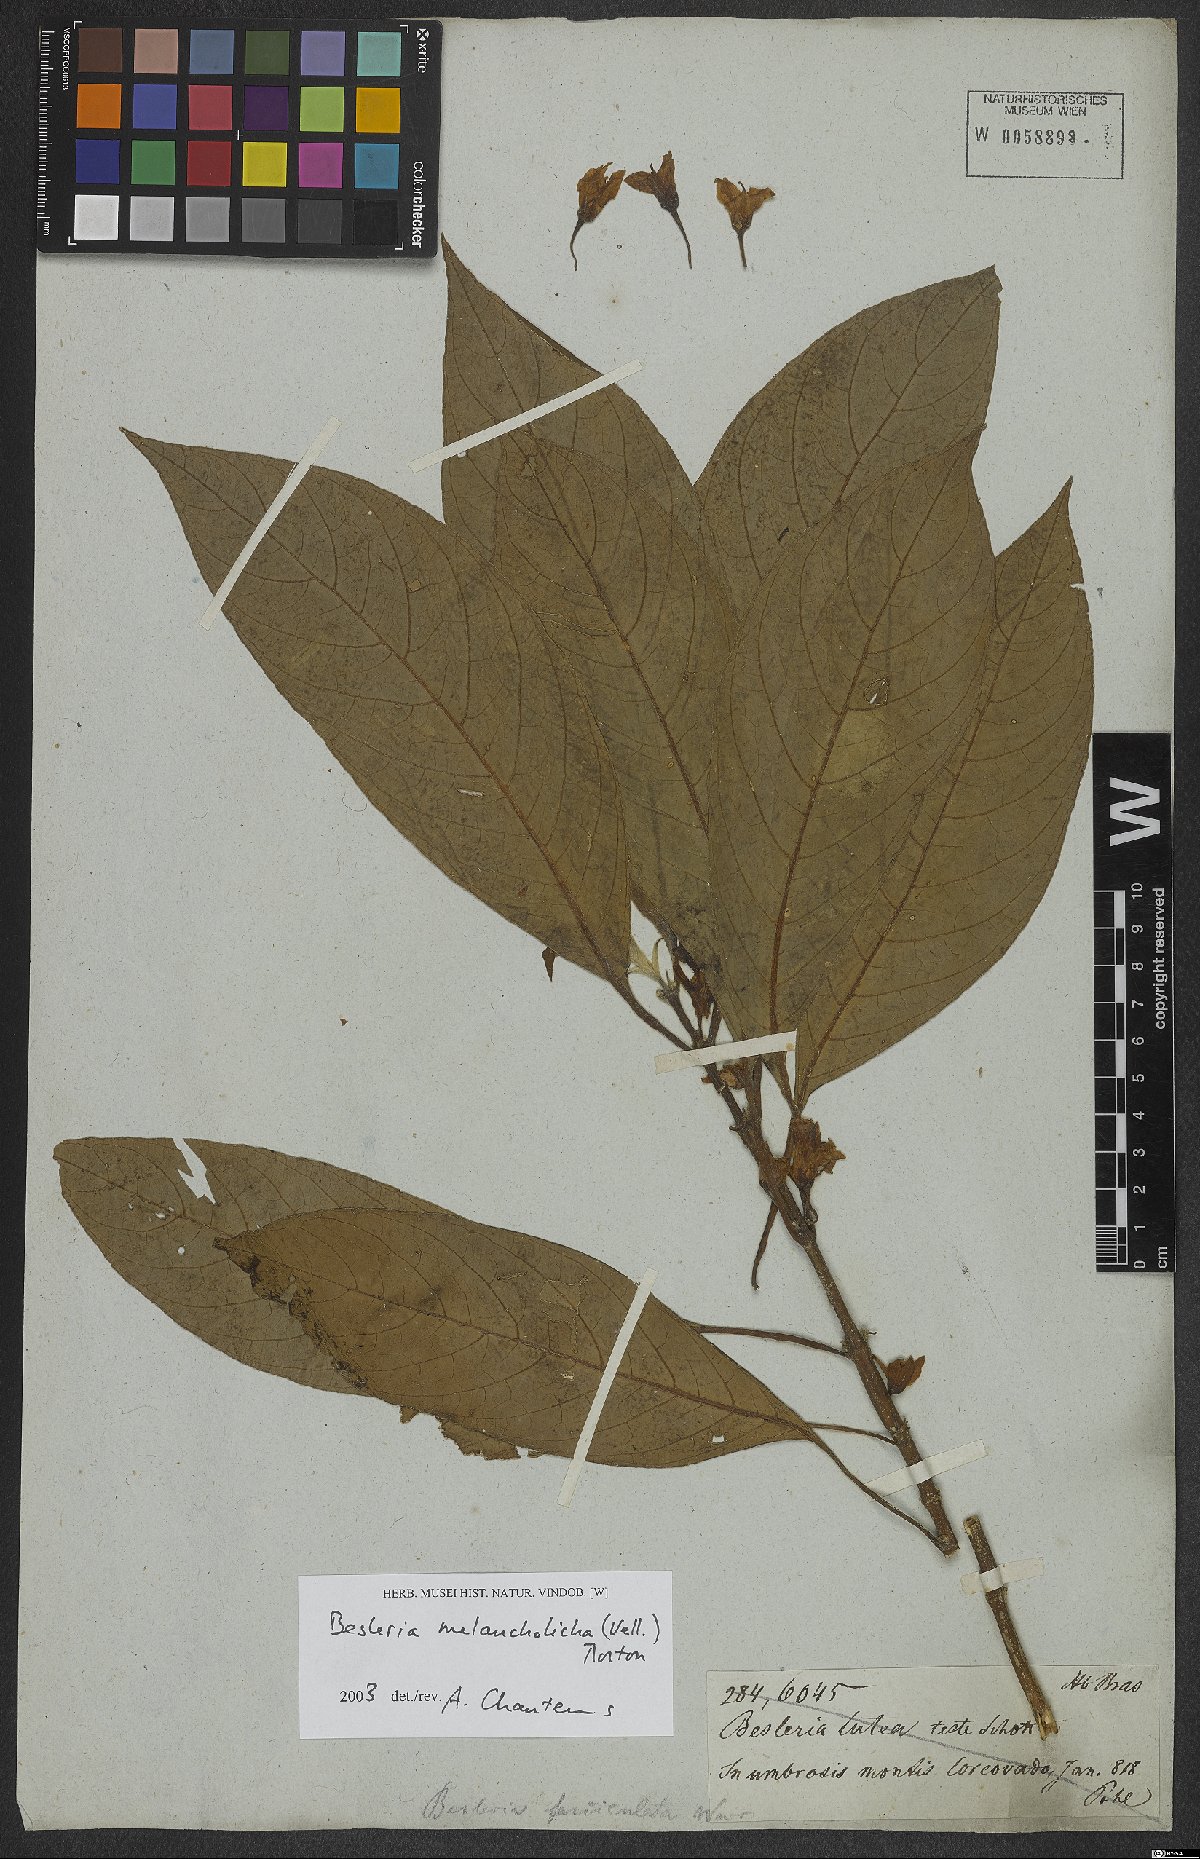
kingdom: Plantae
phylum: Tracheophyta
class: Magnoliopsida
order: Lamiales
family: Gesneriaceae
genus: Besleria
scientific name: Besleria melancholica
